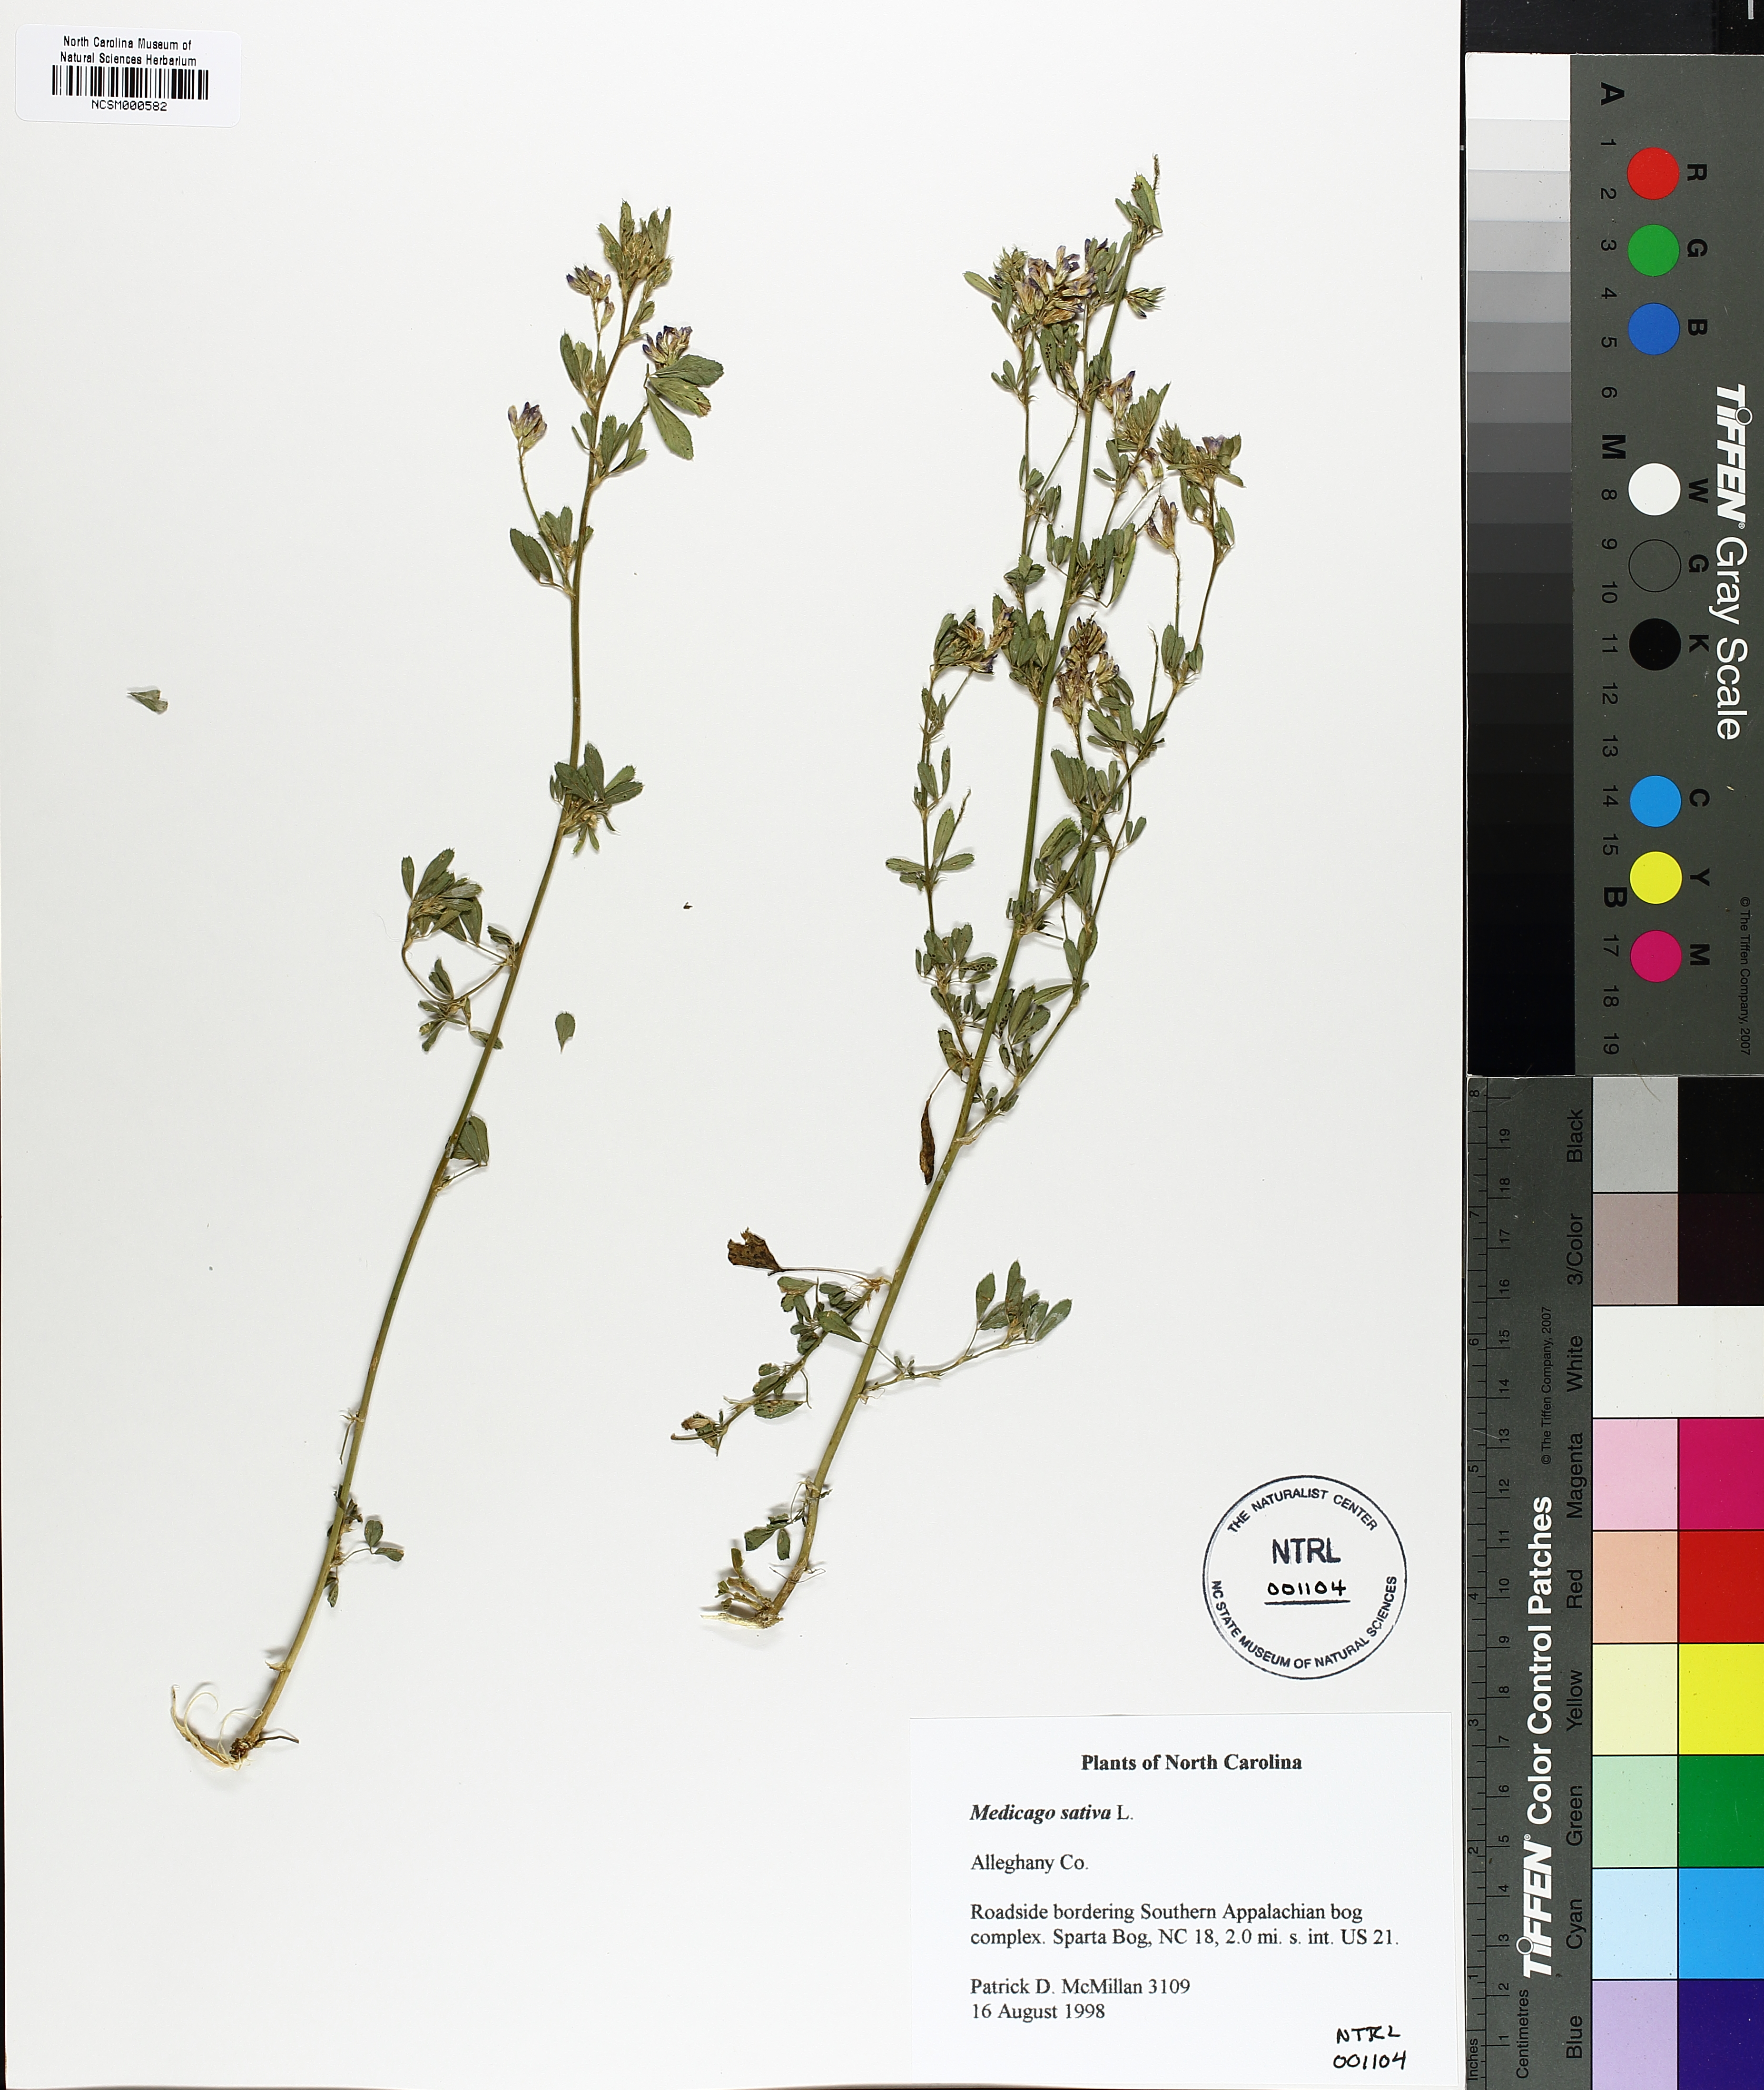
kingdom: Plantae
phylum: Tracheophyta
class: Magnoliopsida
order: Fabales
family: Fabaceae
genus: Medicago
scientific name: Medicago sativa
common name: Alfalfa
